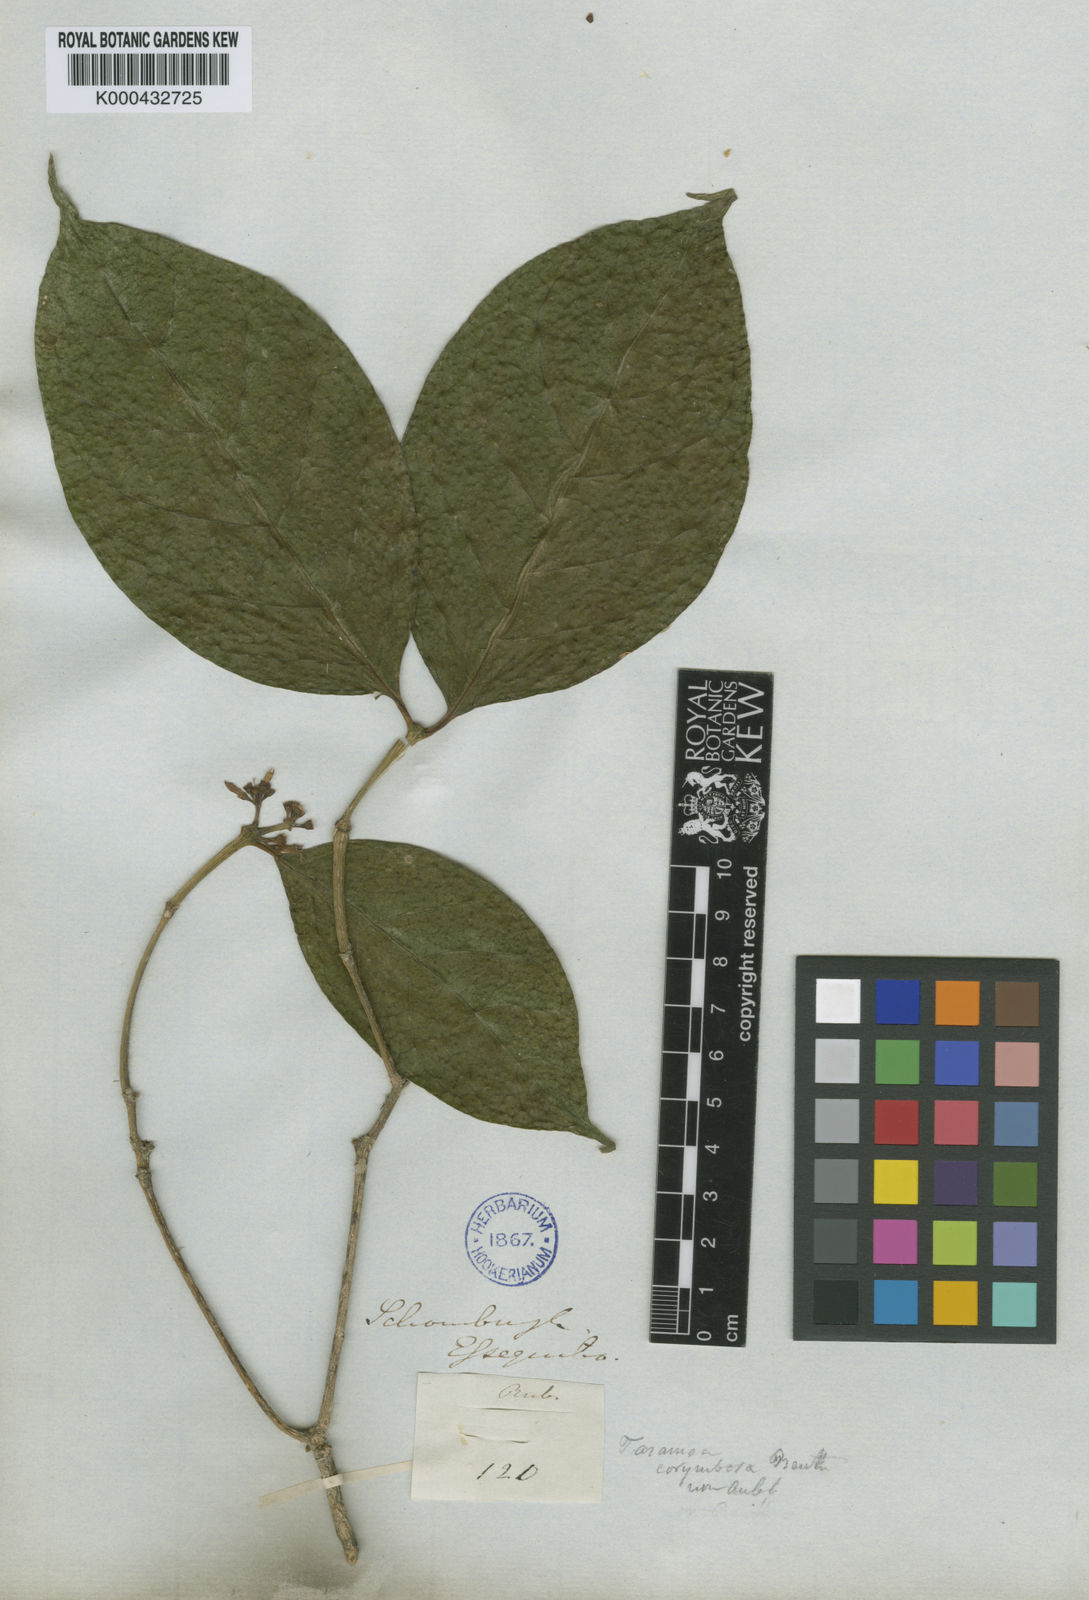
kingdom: Plantae
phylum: Tracheophyta
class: Magnoliopsida
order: Gentianales
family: Rubiaceae
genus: Coussarea
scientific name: Coussarea
